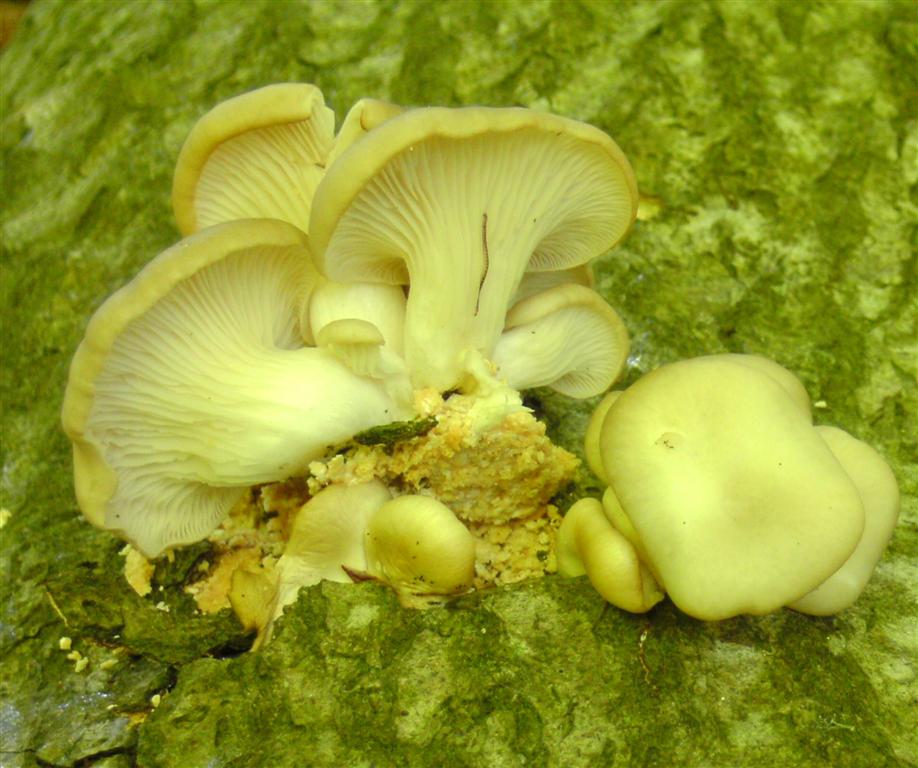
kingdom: Fungi
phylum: Basidiomycota
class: Agaricomycetes
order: Agaricales
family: Pleurotaceae
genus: Pleurotus
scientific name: Pleurotus pulmonarius
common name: sommer-østershat
